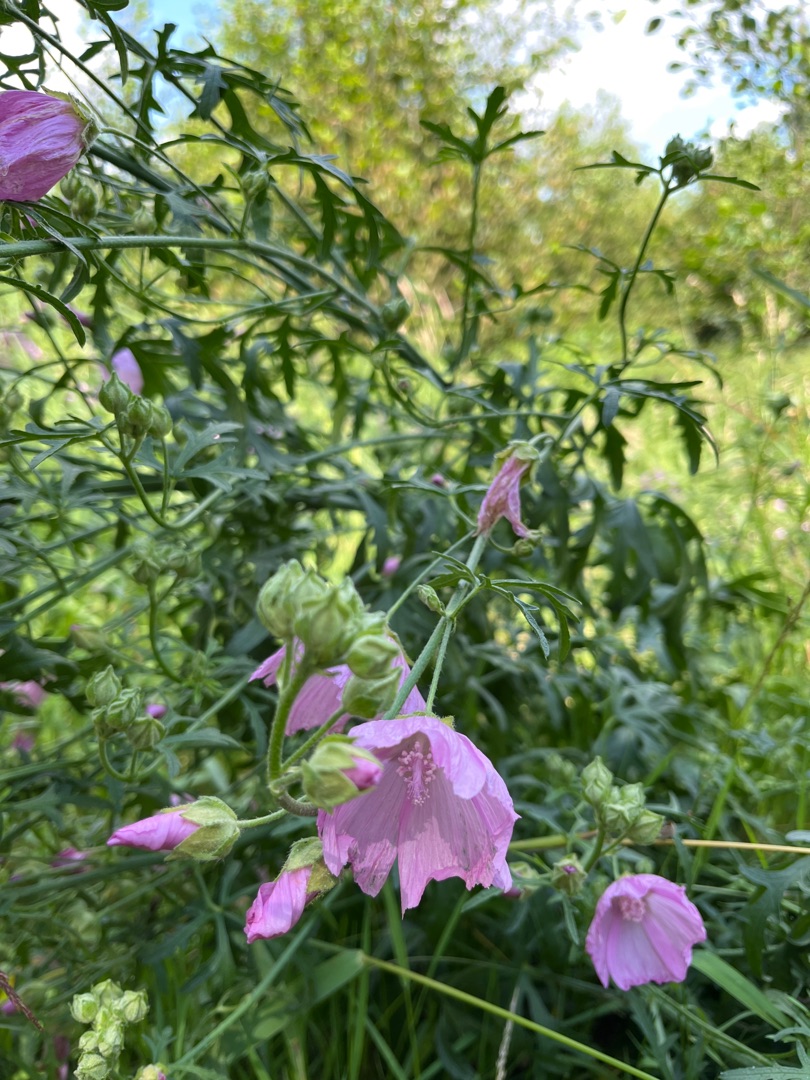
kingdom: Plantae
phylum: Tracheophyta
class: Magnoliopsida
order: Malvales
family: Malvaceae
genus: Malva
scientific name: Malva alcea
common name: Rosen-katost
